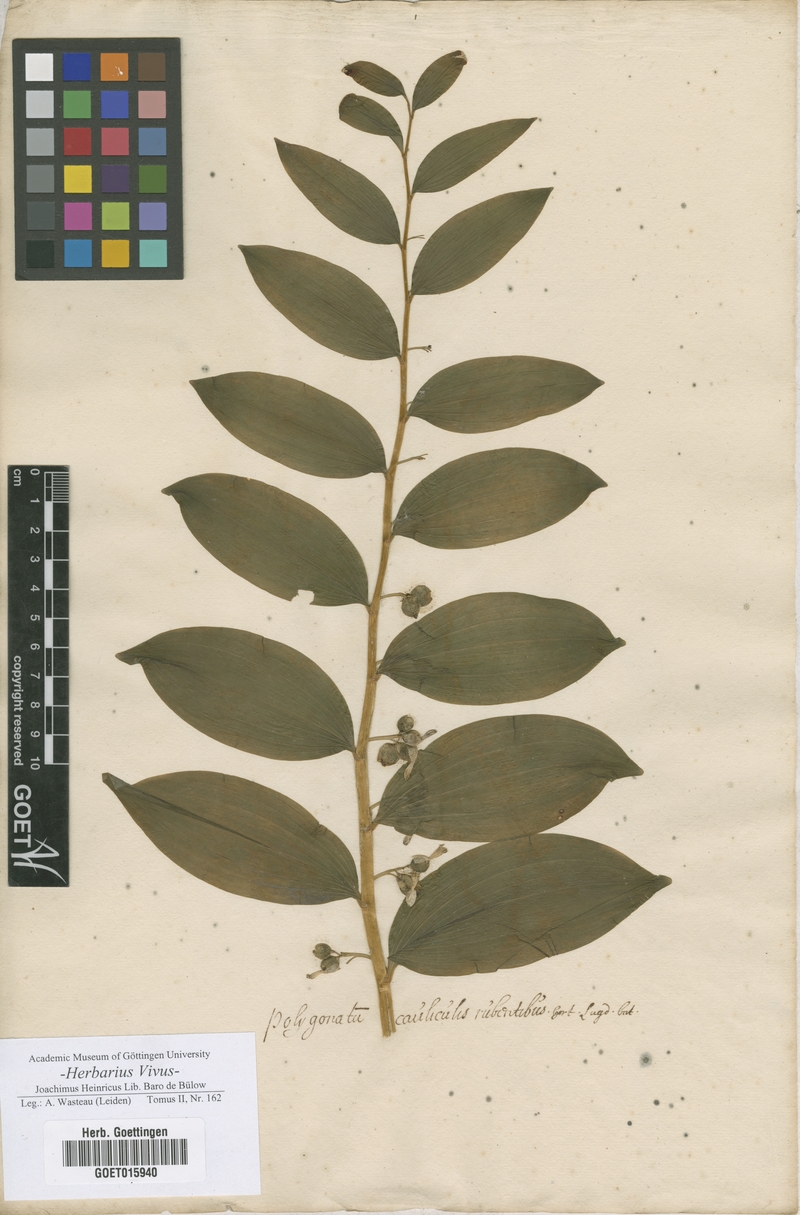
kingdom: Plantae
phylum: Tracheophyta
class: Liliopsida
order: Asparagales
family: Asparagaceae
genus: Polygonatum
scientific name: Polygonatum
